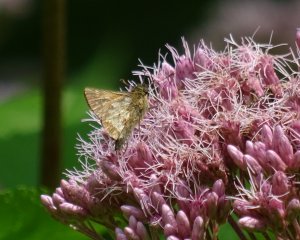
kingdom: Animalia
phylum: Arthropoda
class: Insecta
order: Lepidoptera
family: Hesperiidae
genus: Polites
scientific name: Polites coras
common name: Peck's Skipper
